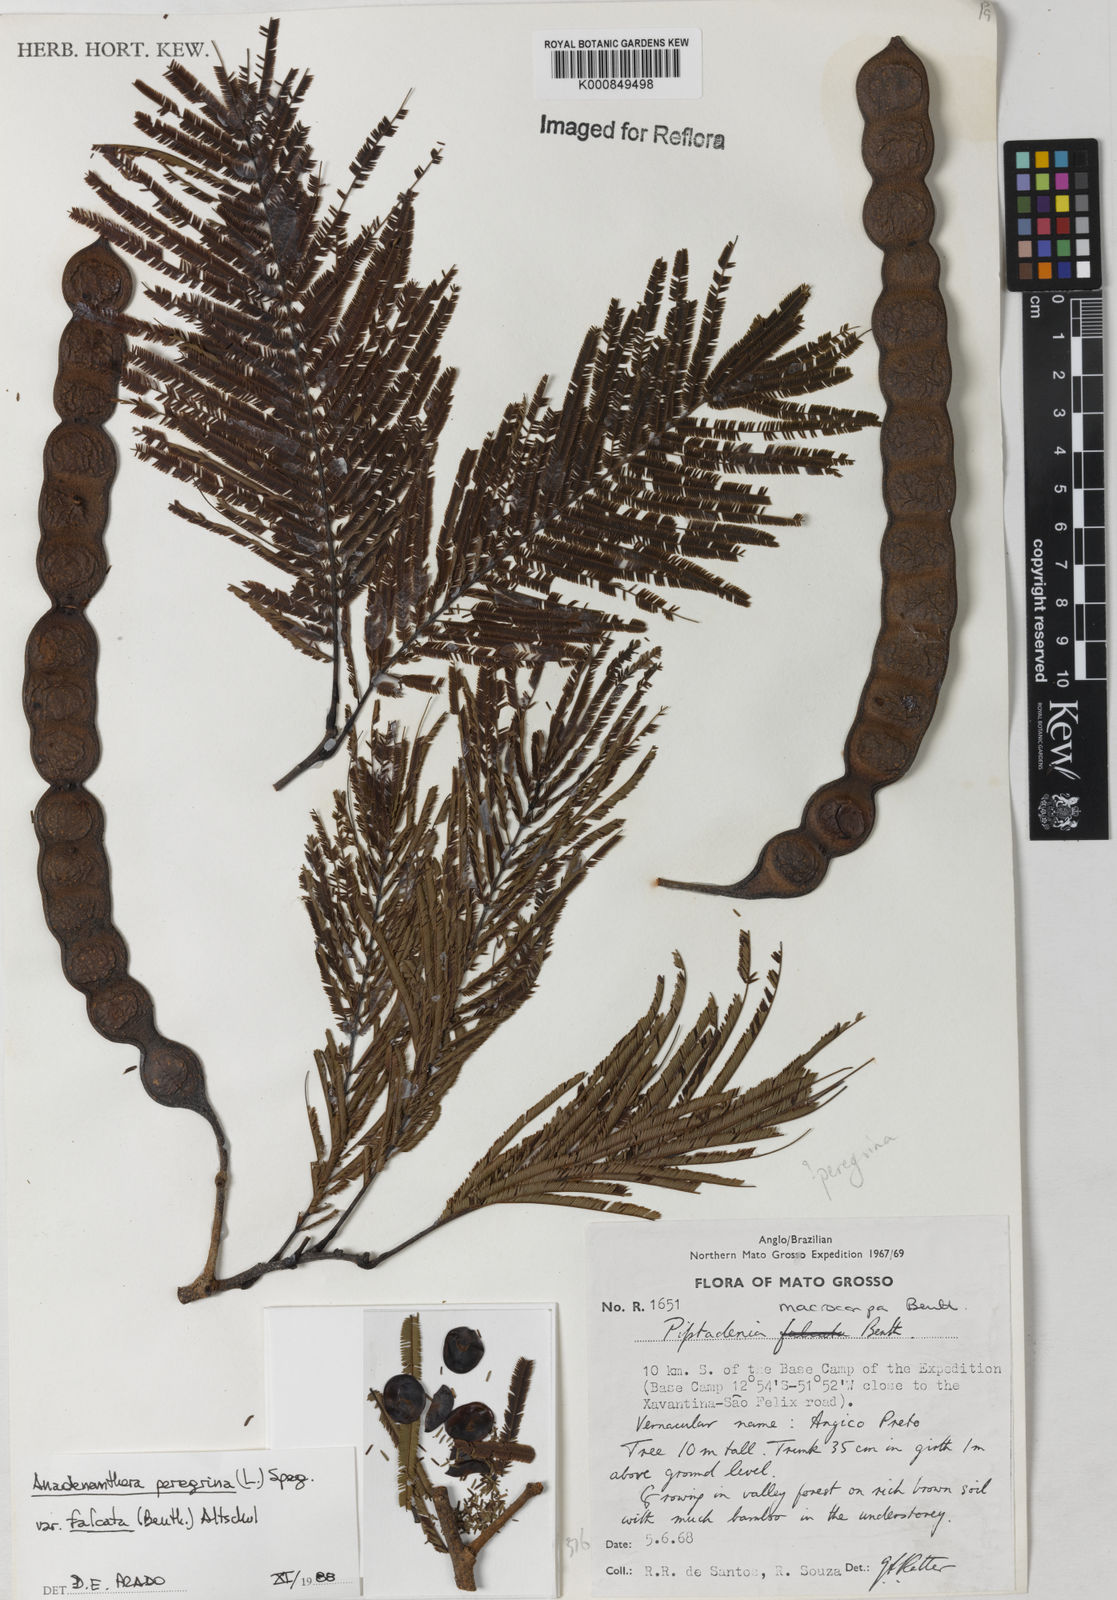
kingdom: Plantae
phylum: Tracheophyta
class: Magnoliopsida
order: Fabales
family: Fabaceae
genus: Anadenanthera
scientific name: Anadenanthera peregrina
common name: Cohoba
